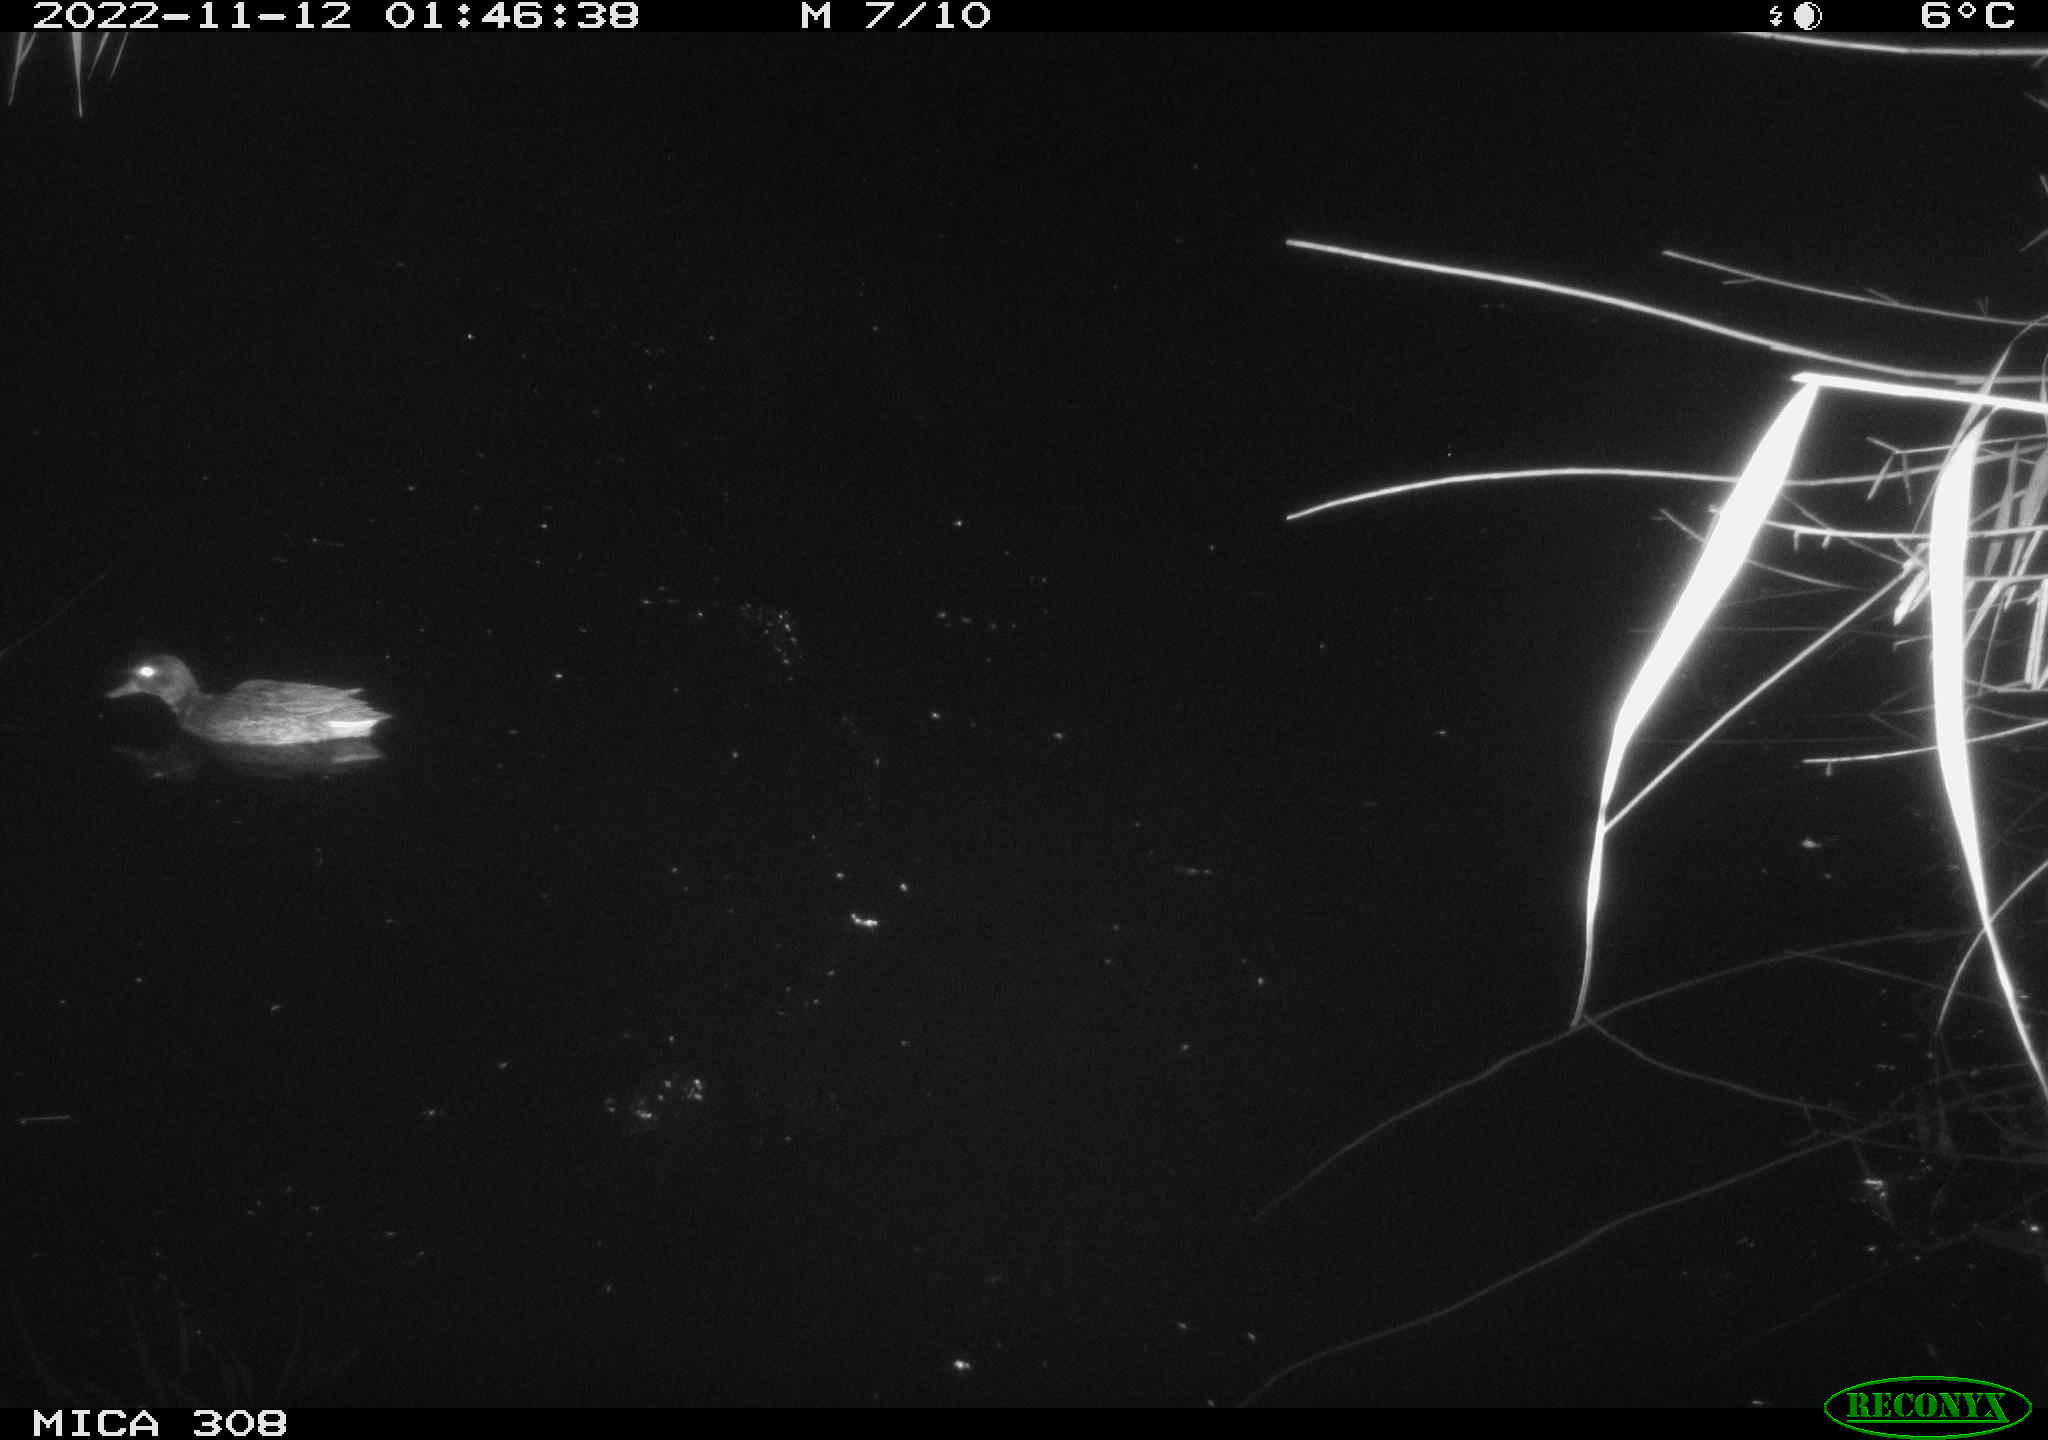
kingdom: Animalia
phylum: Chordata
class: Aves
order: Anseriformes
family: Anatidae
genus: Anas
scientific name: Anas
